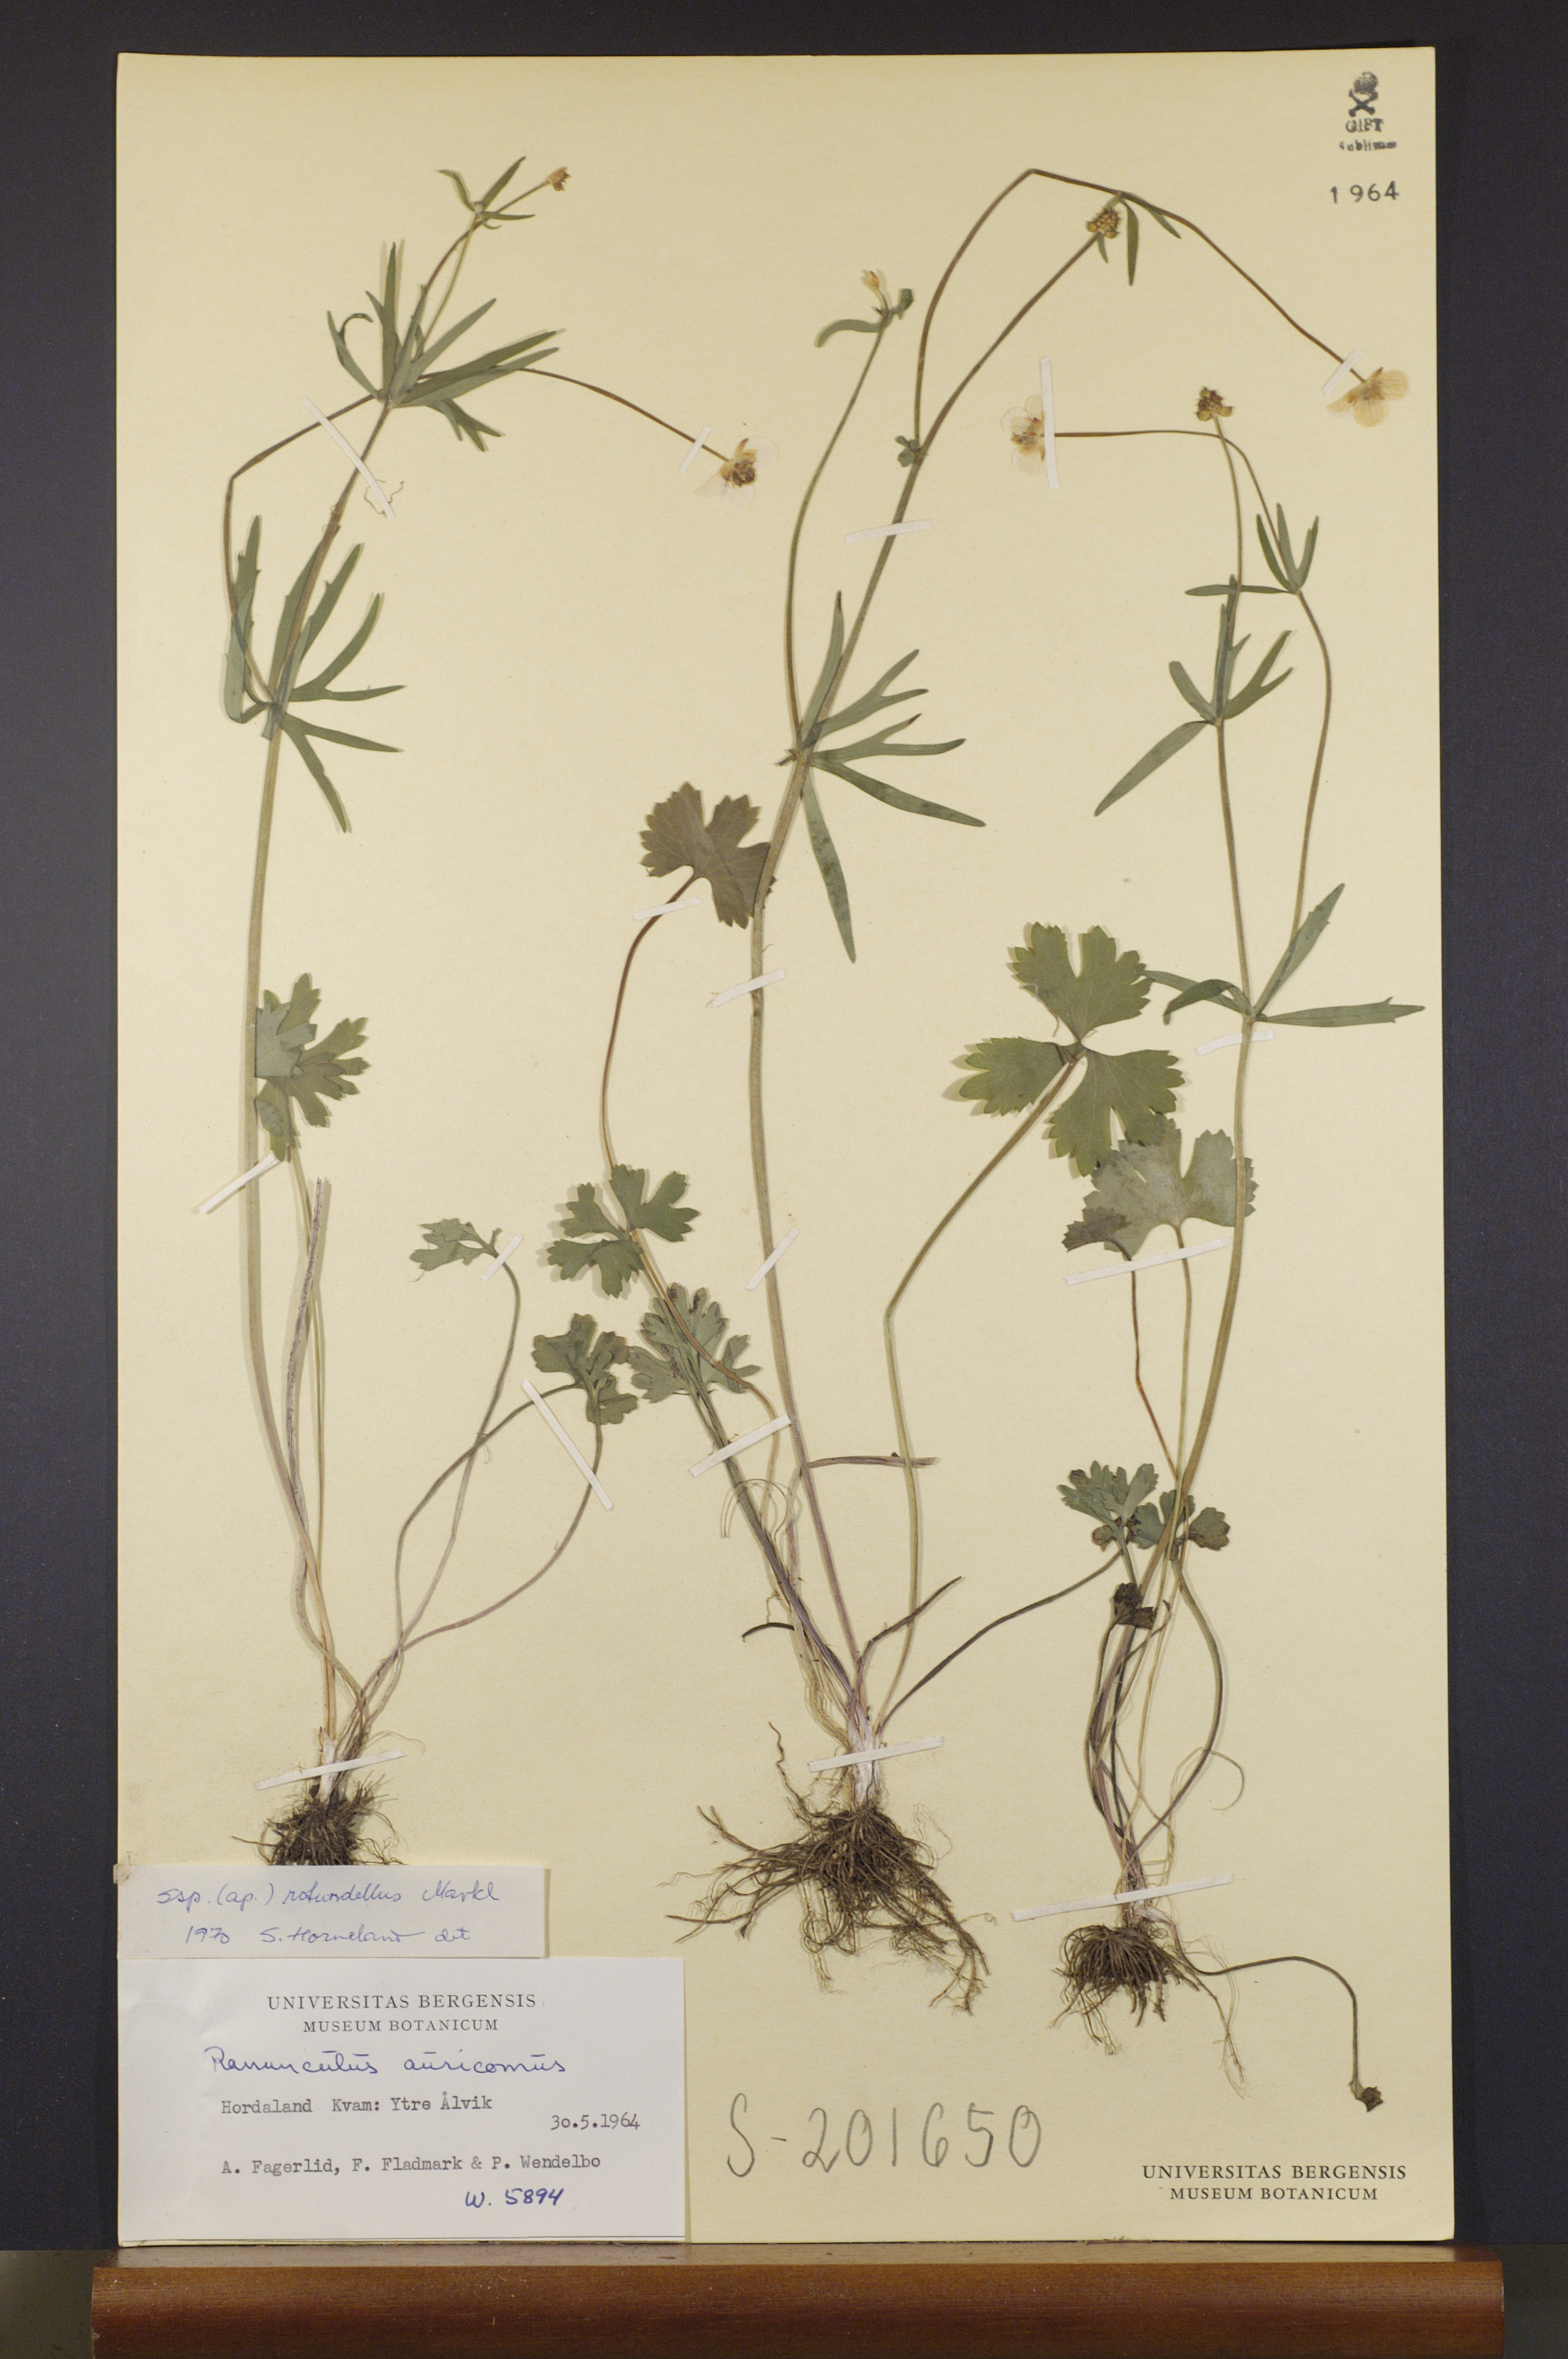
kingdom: Plantae
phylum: Tracheophyta
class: Magnoliopsida
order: Ranunculales
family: Ranunculaceae
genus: Ranunculus
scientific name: Ranunculus rotundellus
